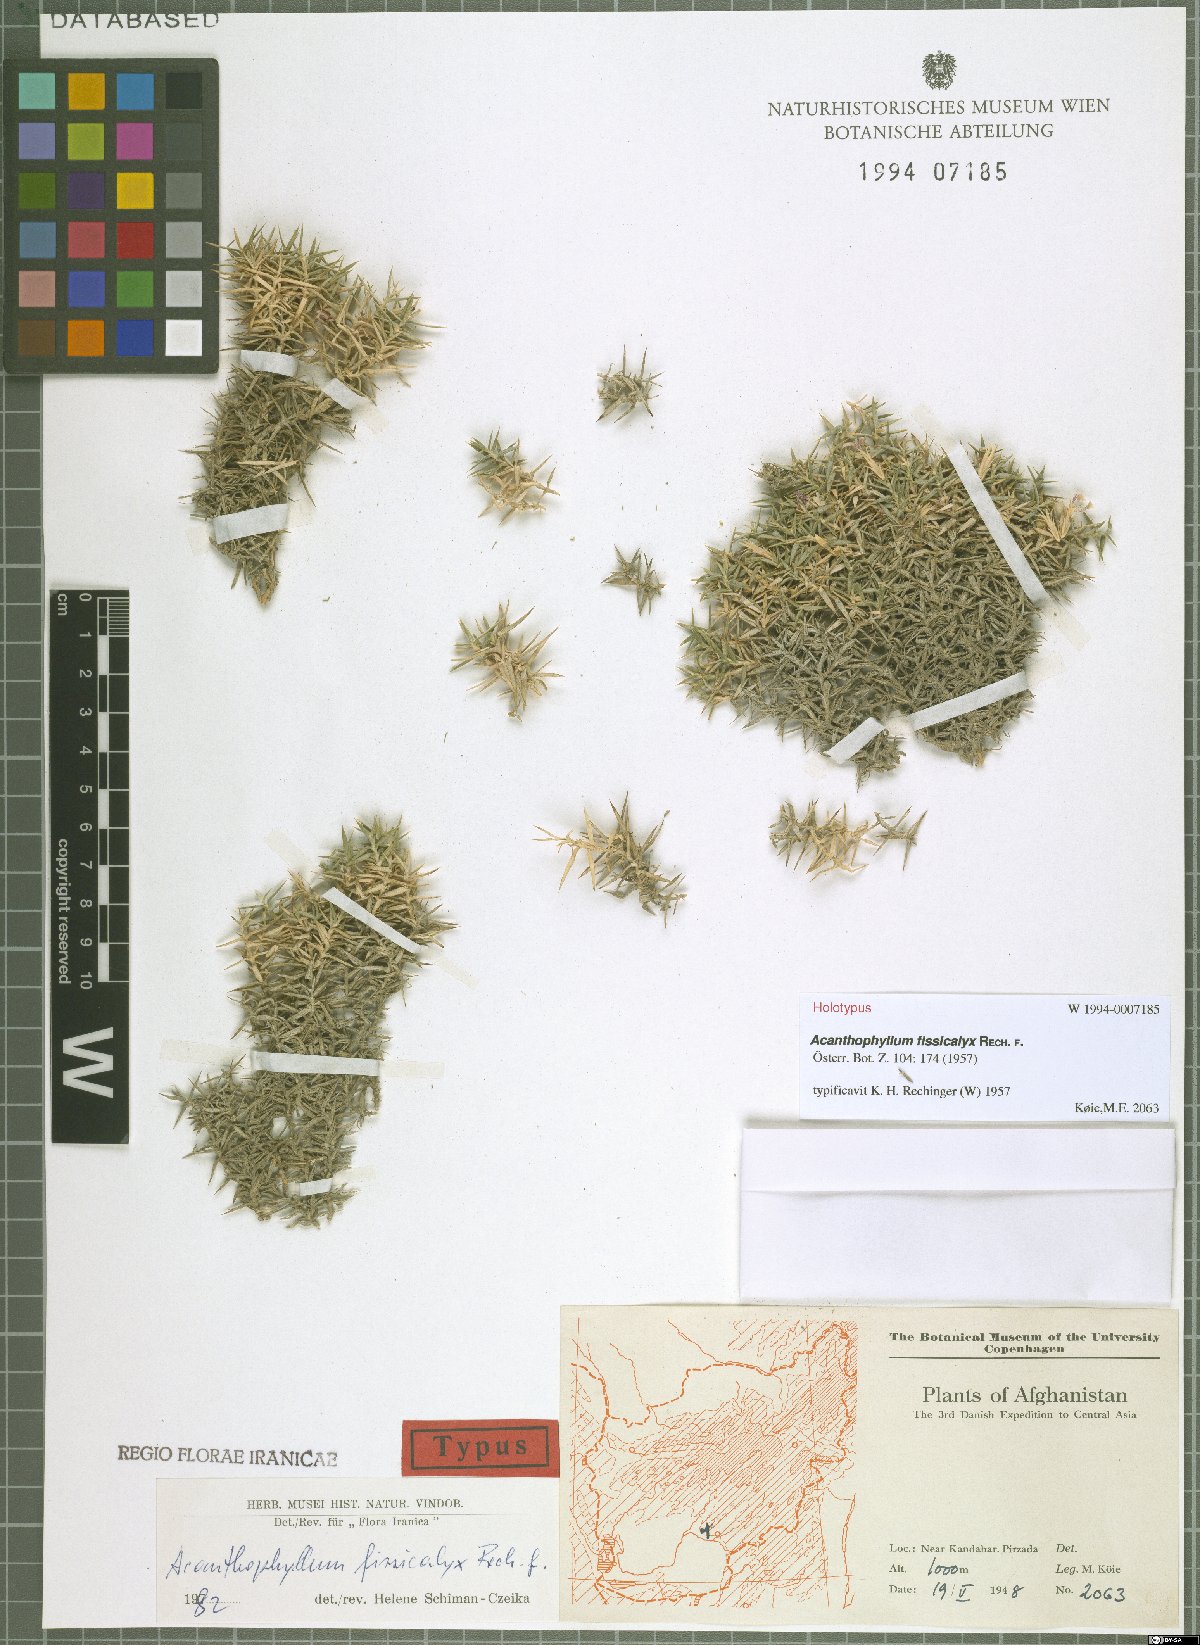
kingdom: Plantae
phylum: Tracheophyta
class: Magnoliopsida
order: Caryophyllales
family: Caryophyllaceae
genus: Acanthophyllum
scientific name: Acanthophyllum grandiflorum
